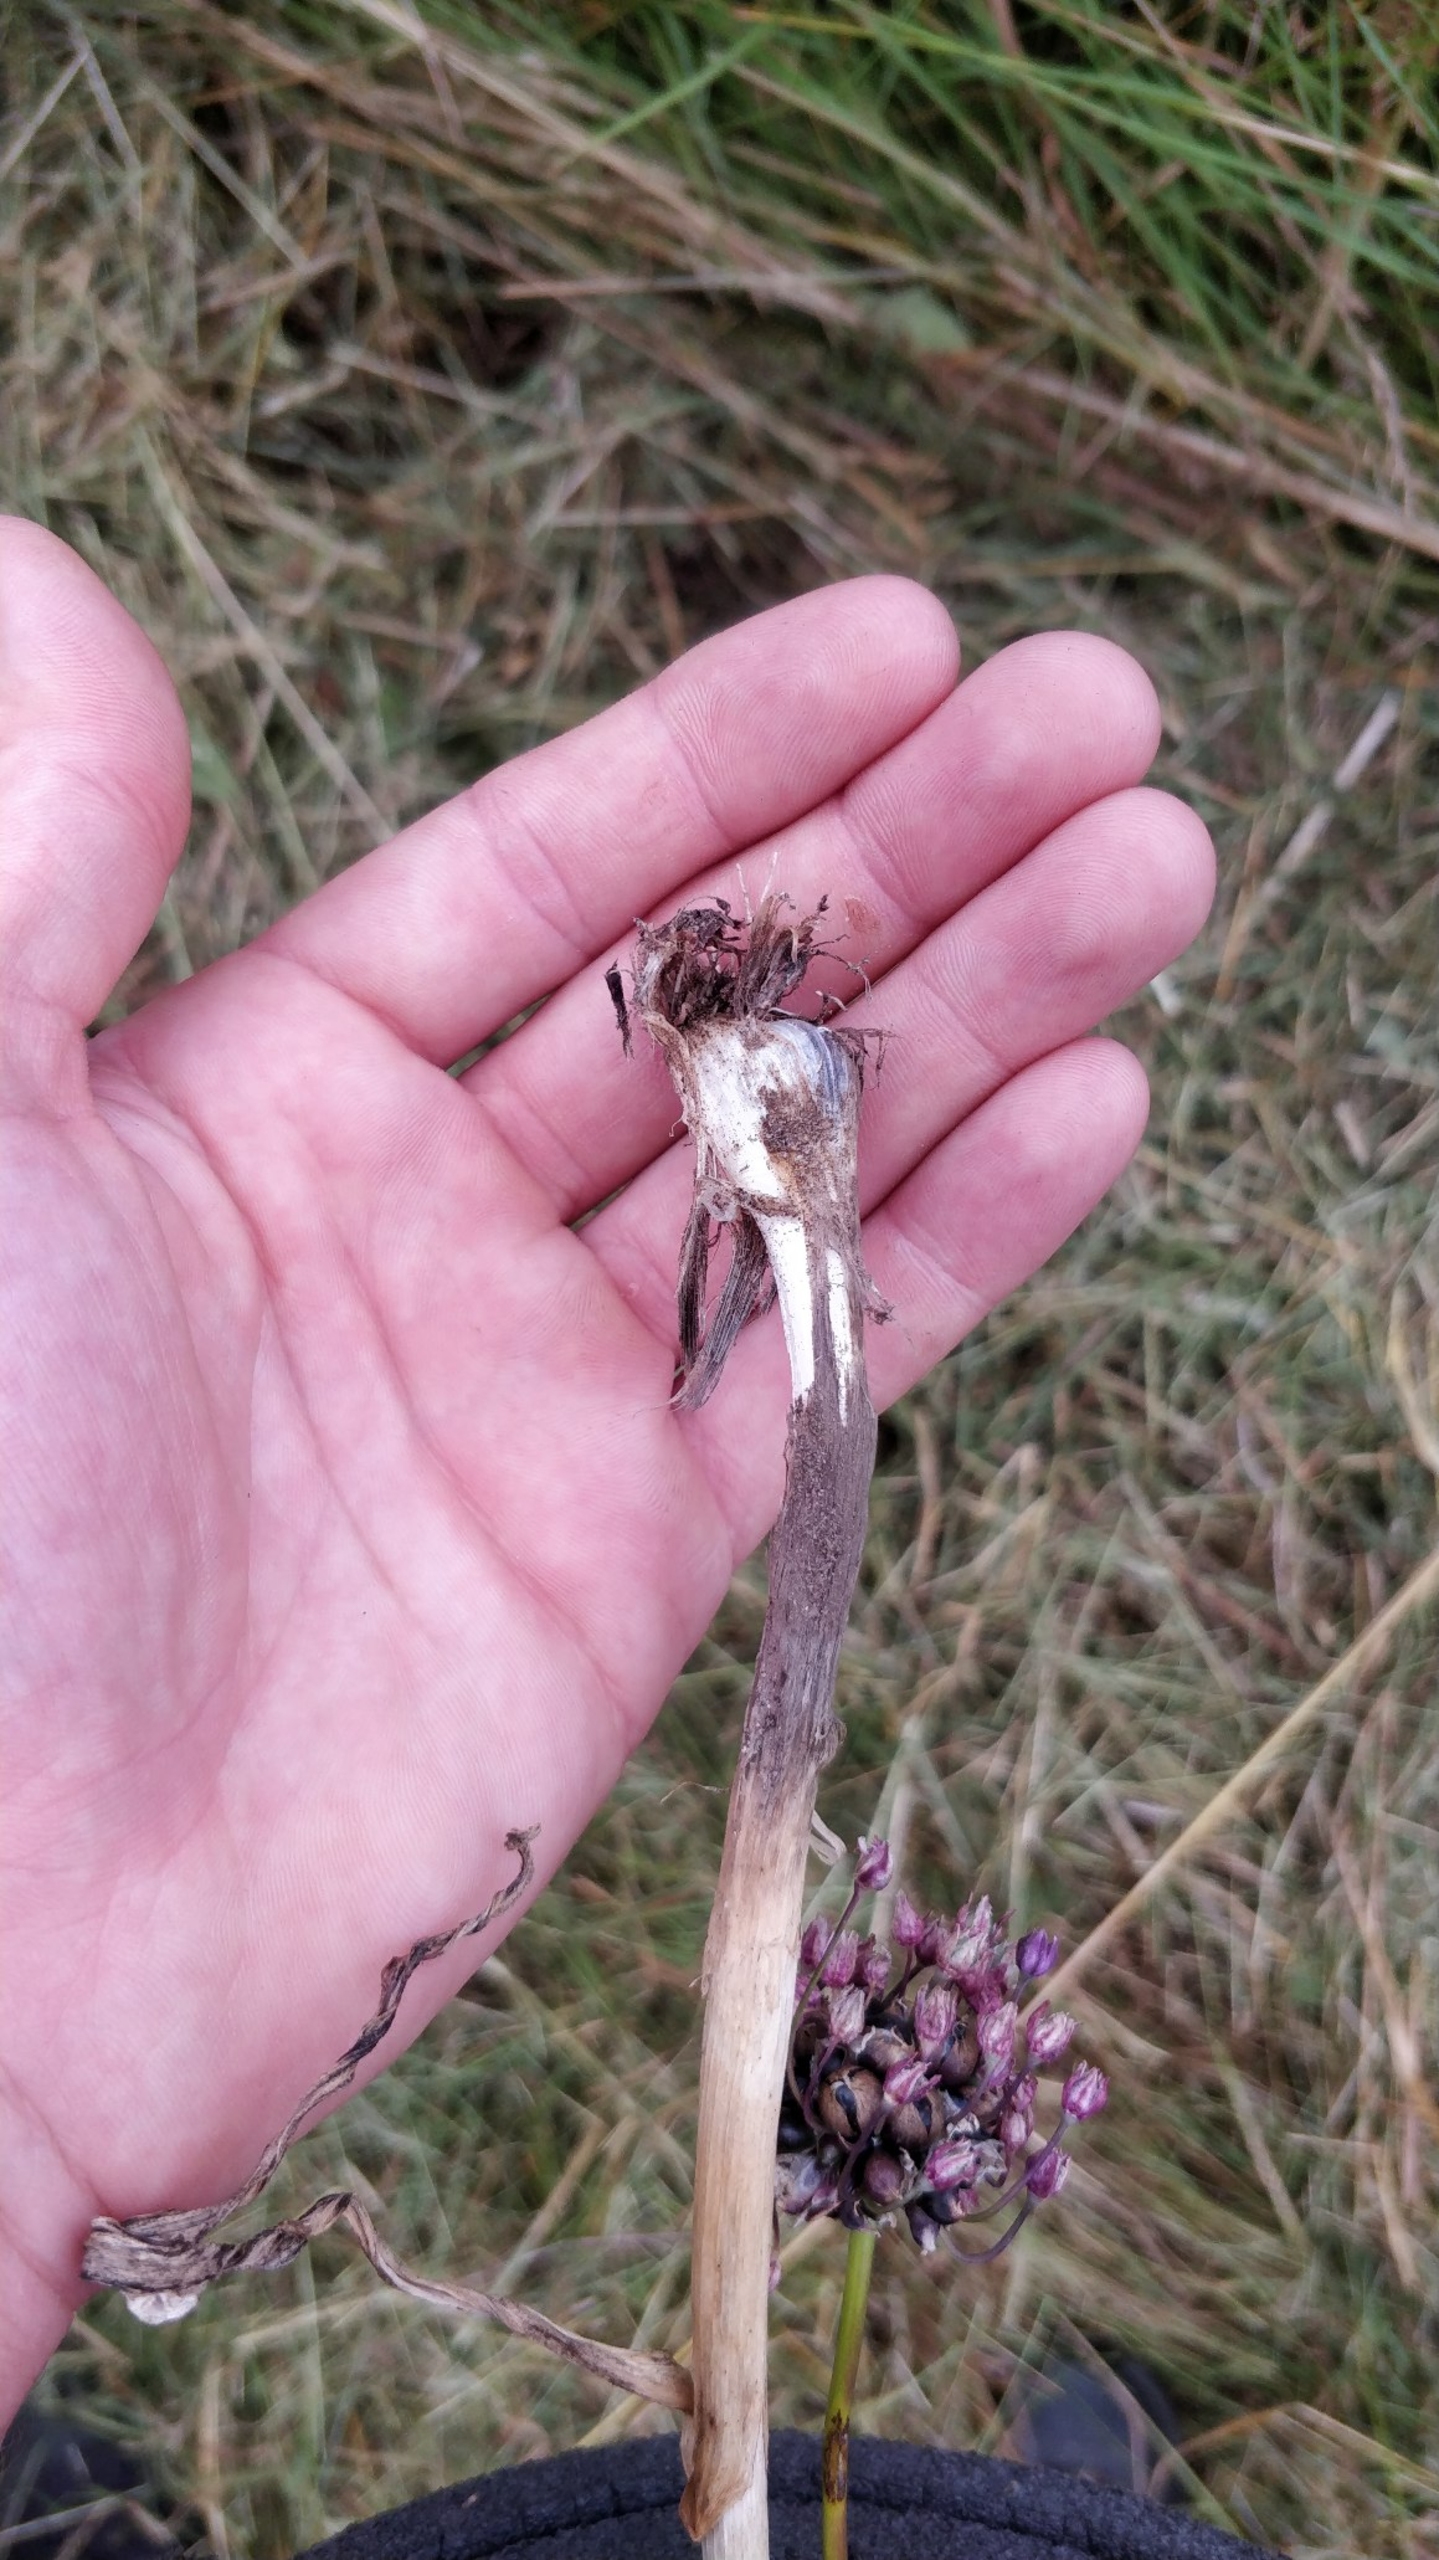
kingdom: Plantae
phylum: Tracheophyta
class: Liliopsida
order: Asparagales
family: Amaryllidaceae
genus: Allium
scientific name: Allium scorodoprasum
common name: Skov-løg
